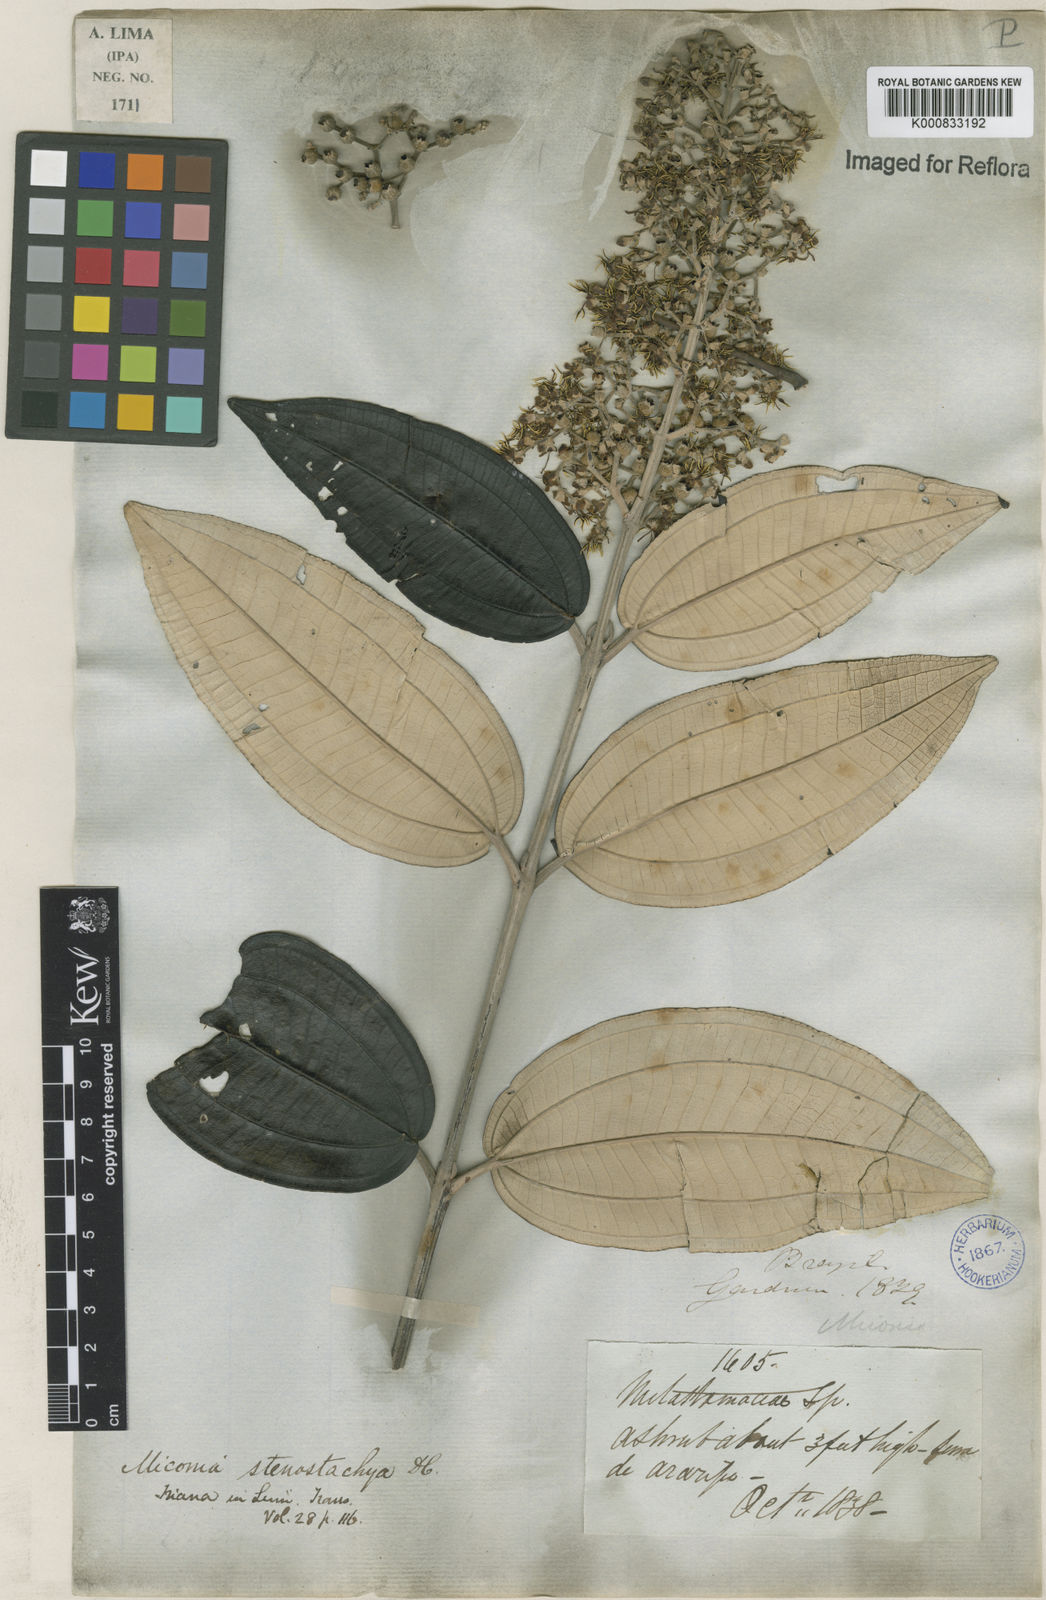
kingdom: Plantae
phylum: Tracheophyta
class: Magnoliopsida
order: Myrtales
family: Melastomataceae
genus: Miconia
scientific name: Miconia stenostachya
